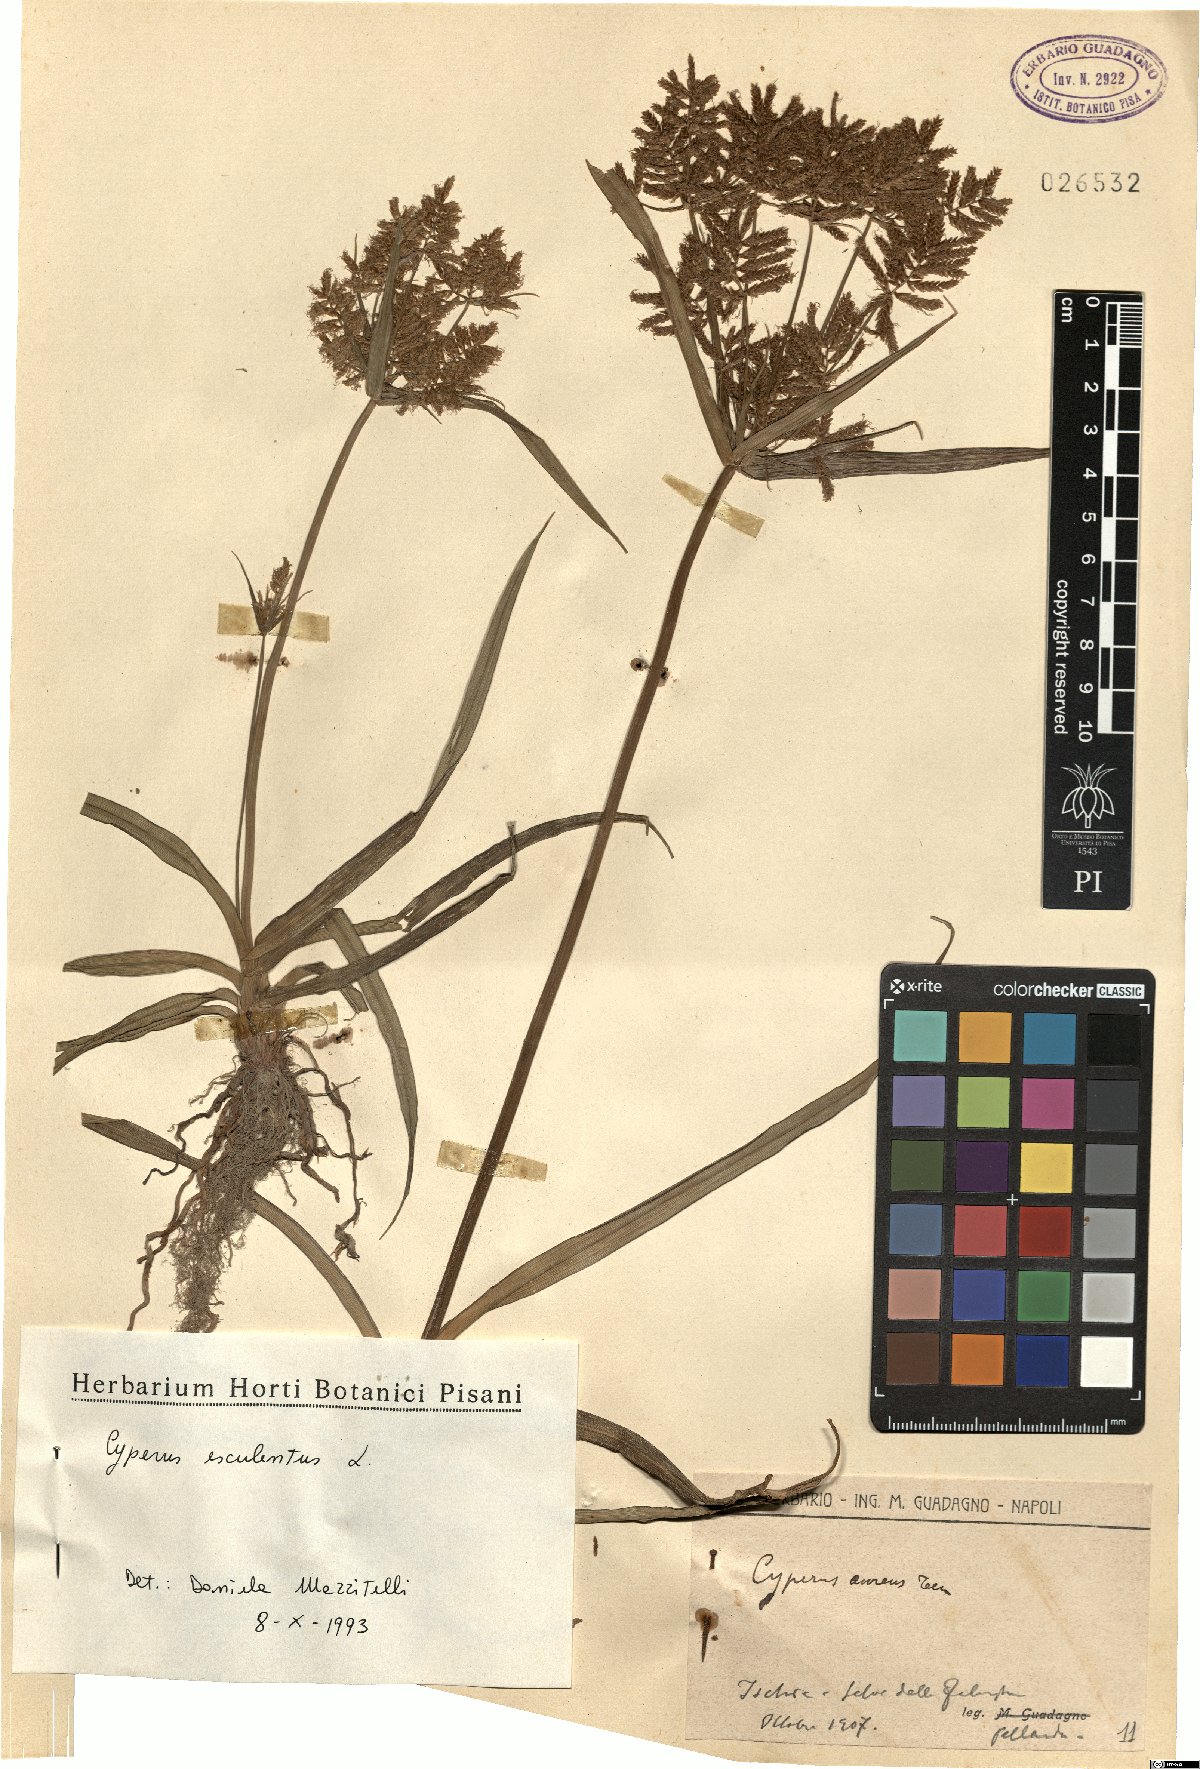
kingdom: Plantae
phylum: Tracheophyta
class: Liliopsida
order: Poales
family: Cyperaceae
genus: Cyperus
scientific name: Cyperus esculentus
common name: Yellow nutsedge
